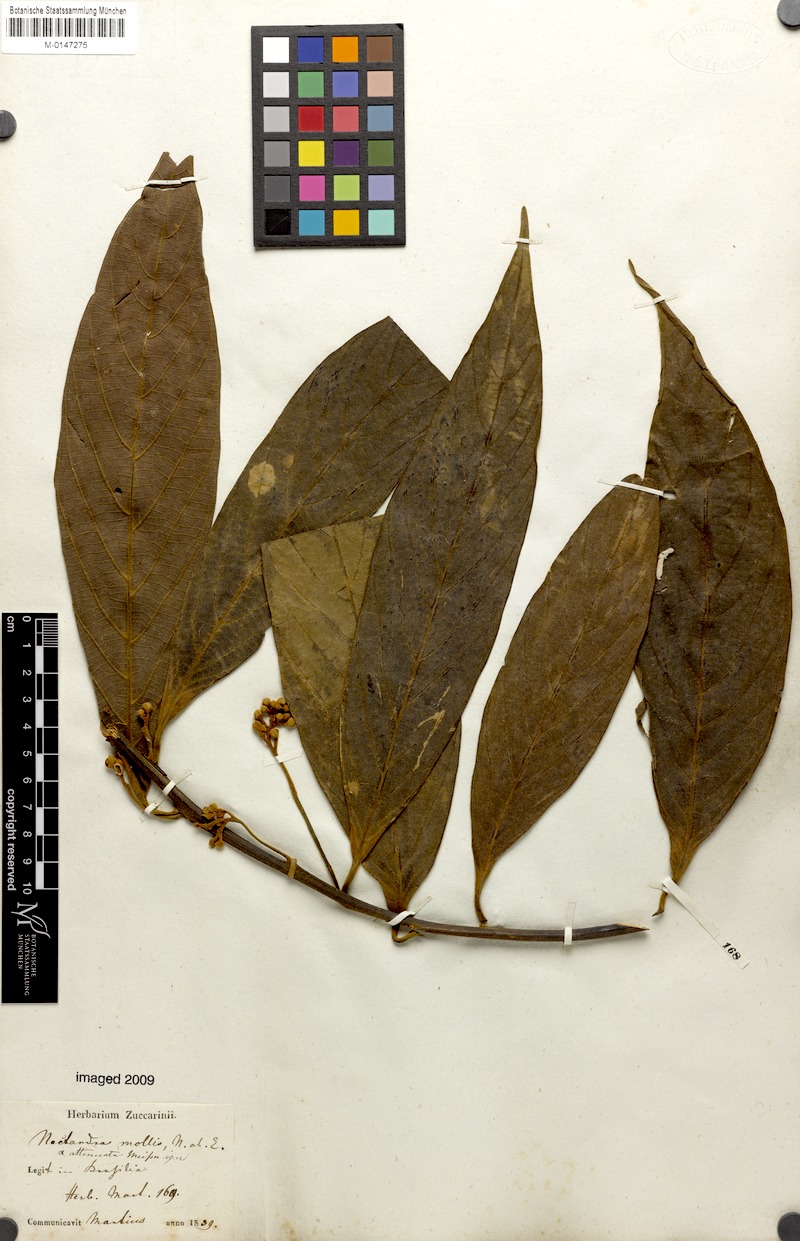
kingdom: Plantae
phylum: Tracheophyta
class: Magnoliopsida
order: Laurales
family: Lauraceae
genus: Nectandra
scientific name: Nectandra villosa
